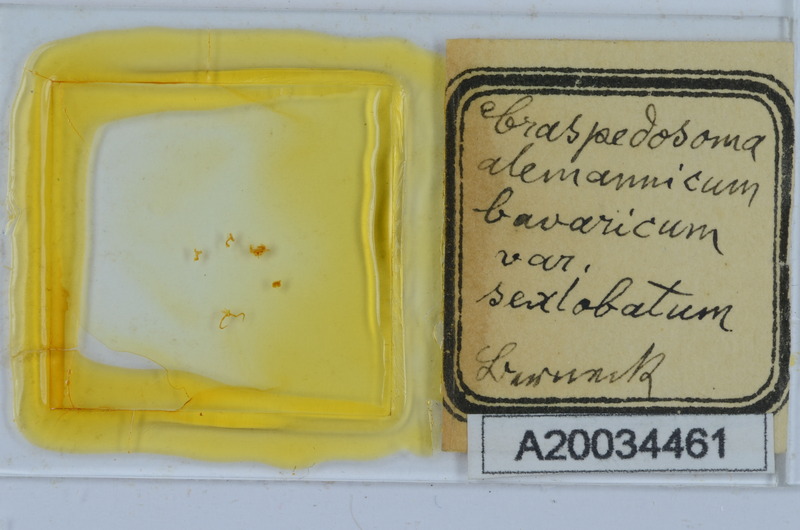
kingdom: Animalia
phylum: Arthropoda
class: Diplopoda
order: Chordeumatida
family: Craspedosomatidae
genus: Craspedosoma
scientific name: Craspedosoma rawlinsii
